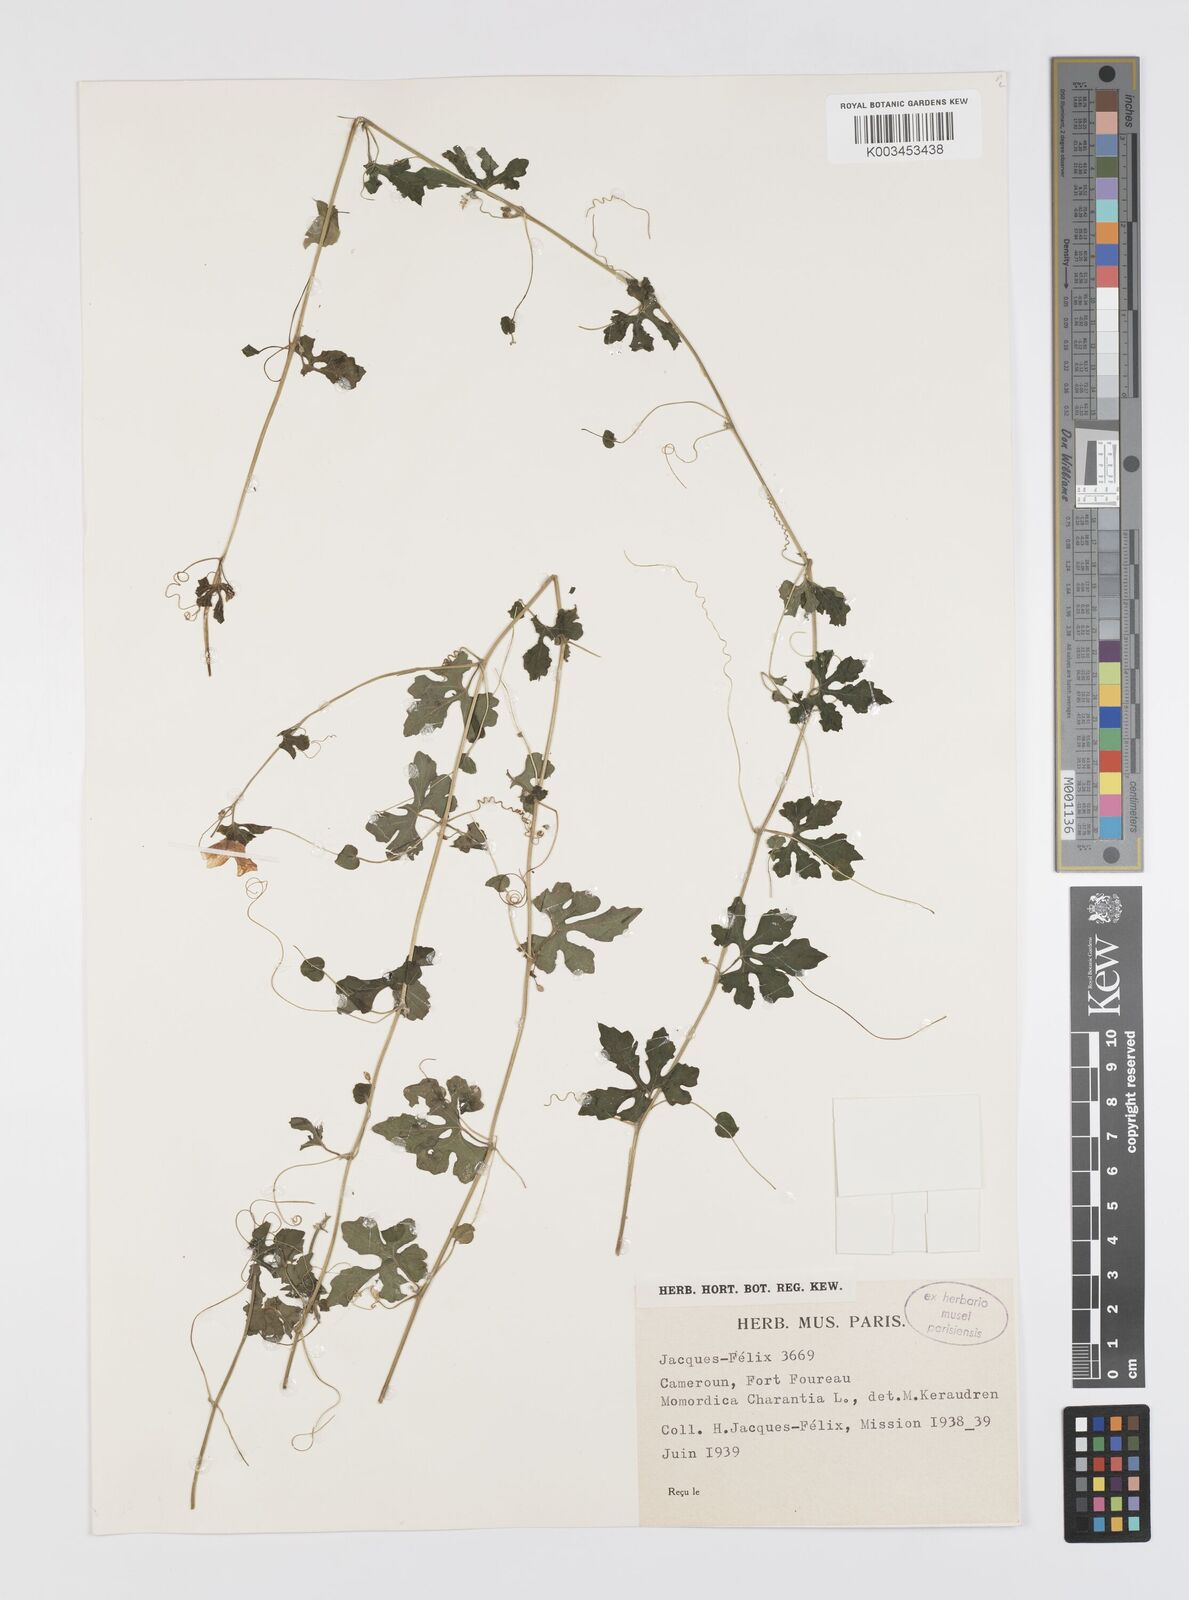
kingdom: Plantae
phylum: Tracheophyta
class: Magnoliopsida
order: Cucurbitales
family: Cucurbitaceae
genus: Momordica
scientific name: Momordica charantia
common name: Balsampear
